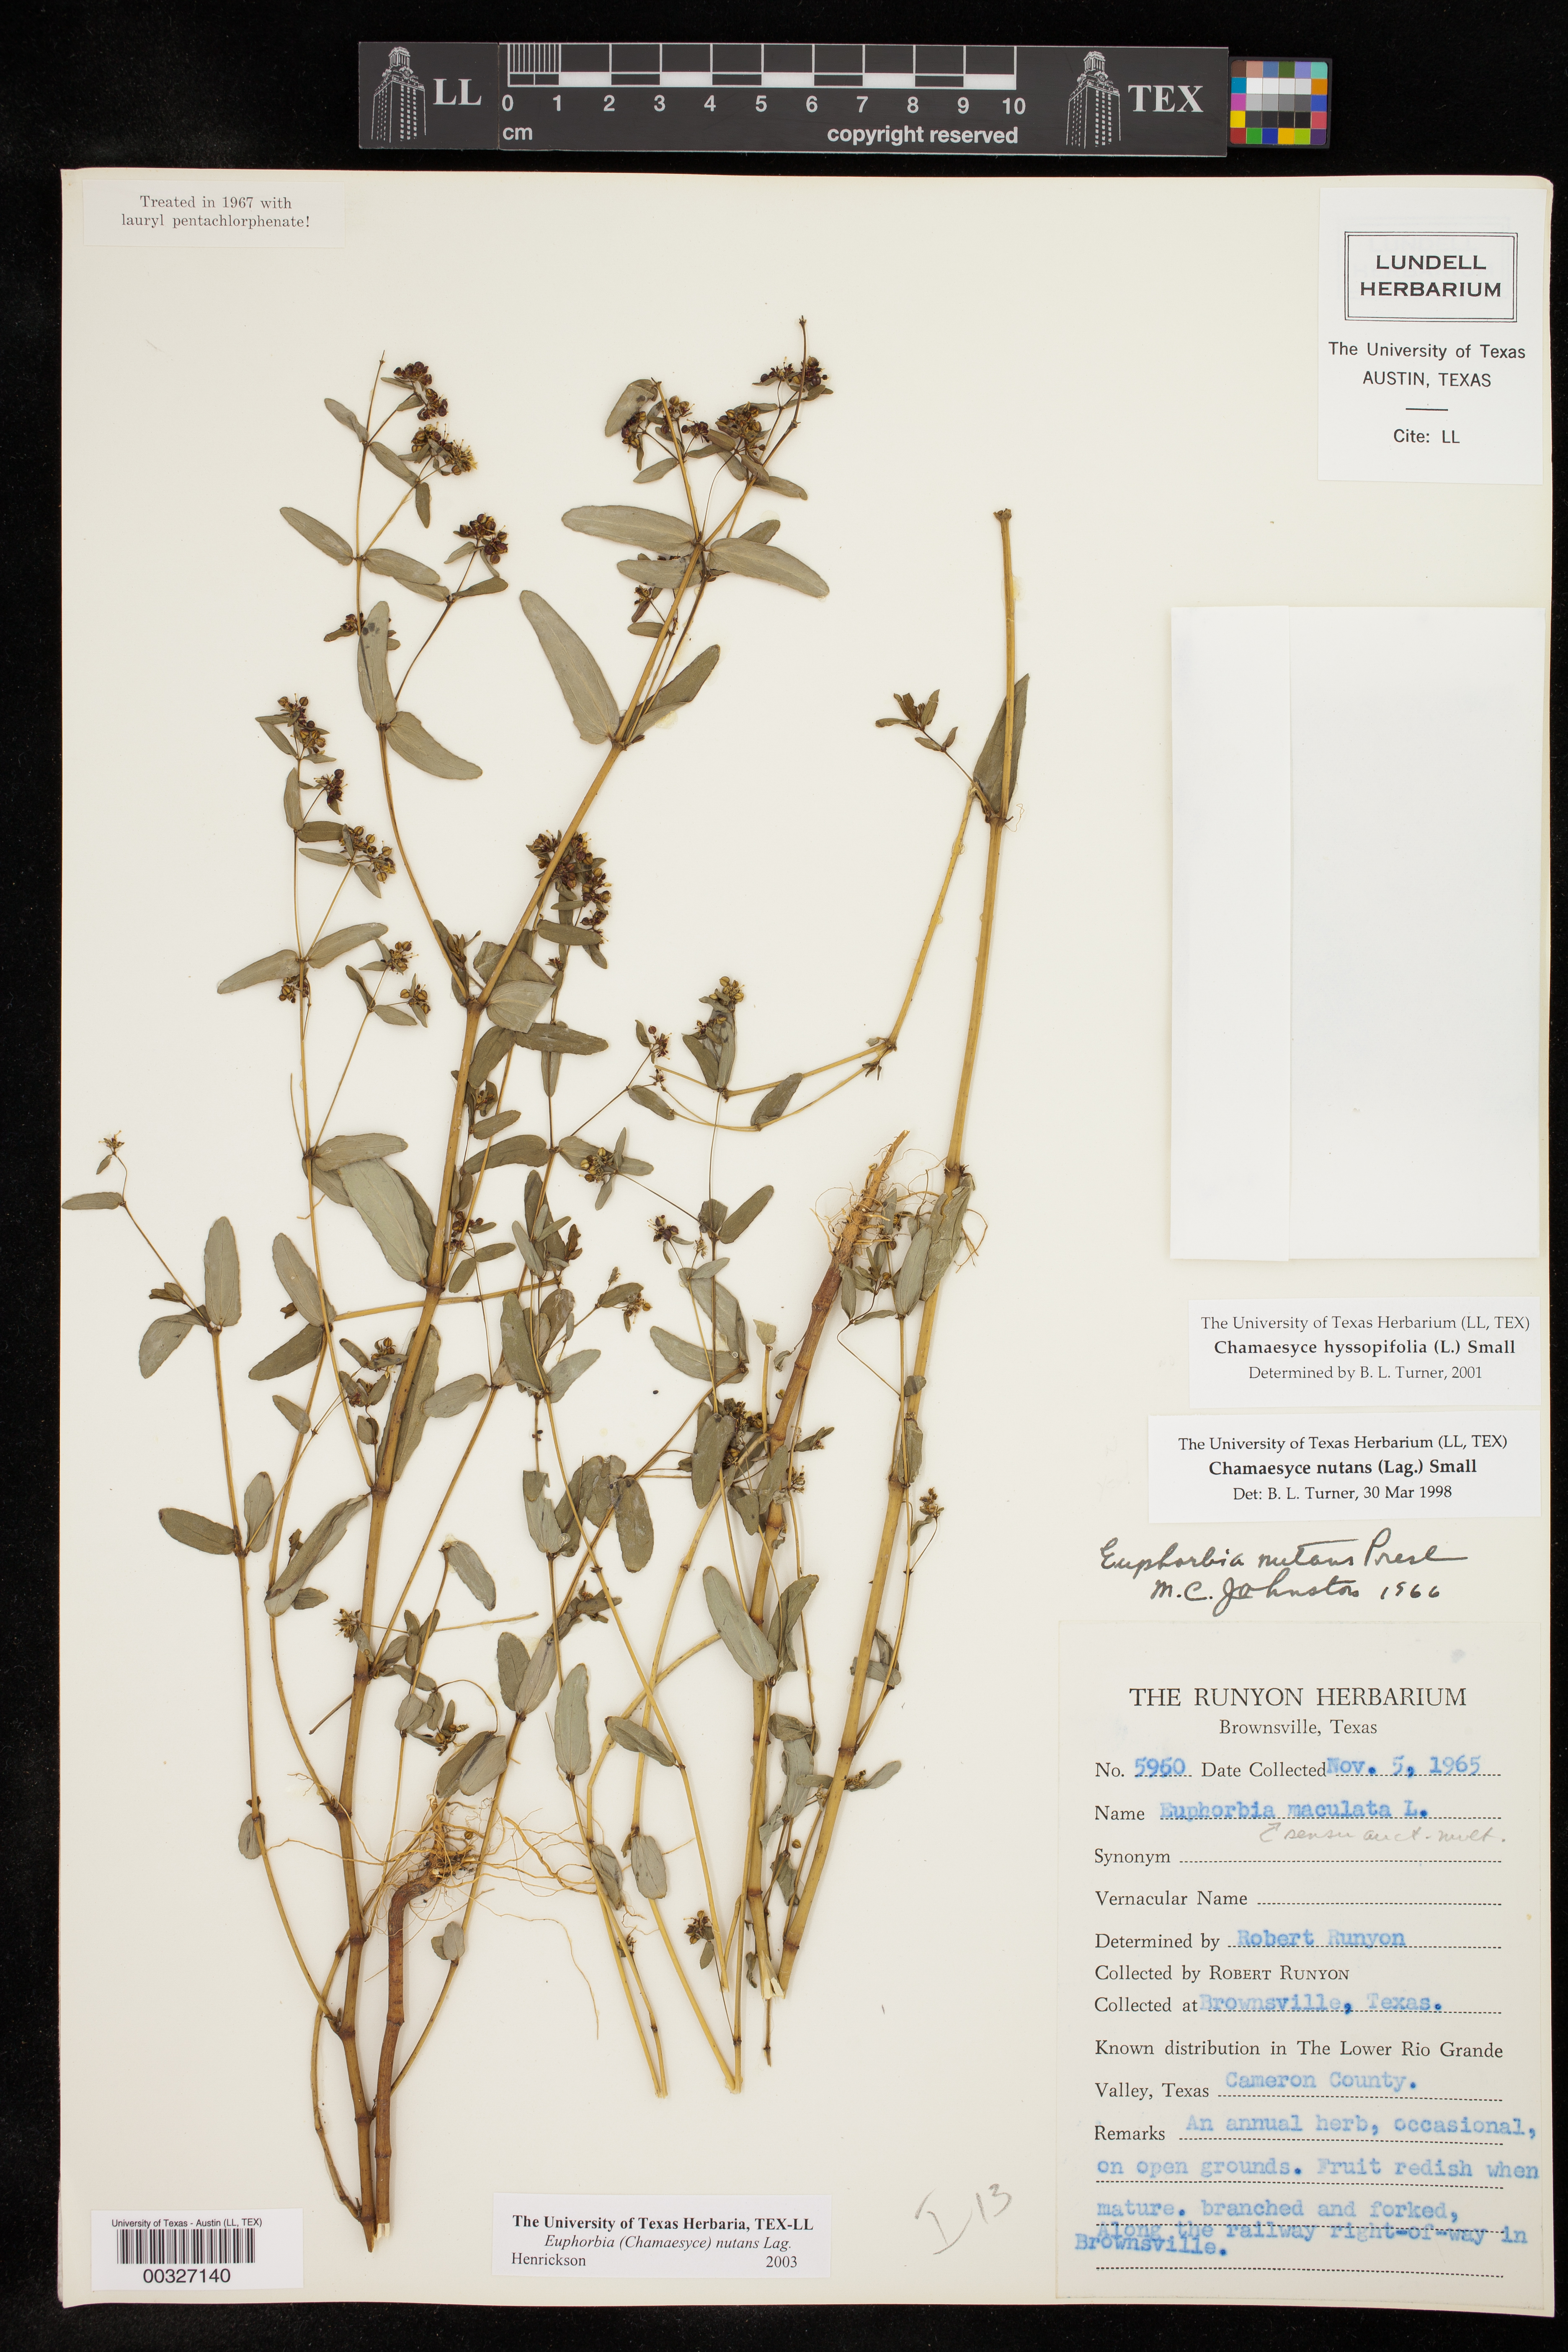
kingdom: Plantae
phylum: Tracheophyta
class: Magnoliopsida
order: Malpighiales
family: Euphorbiaceae
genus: Euphorbia
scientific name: Euphorbia nutans
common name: Eyebane
